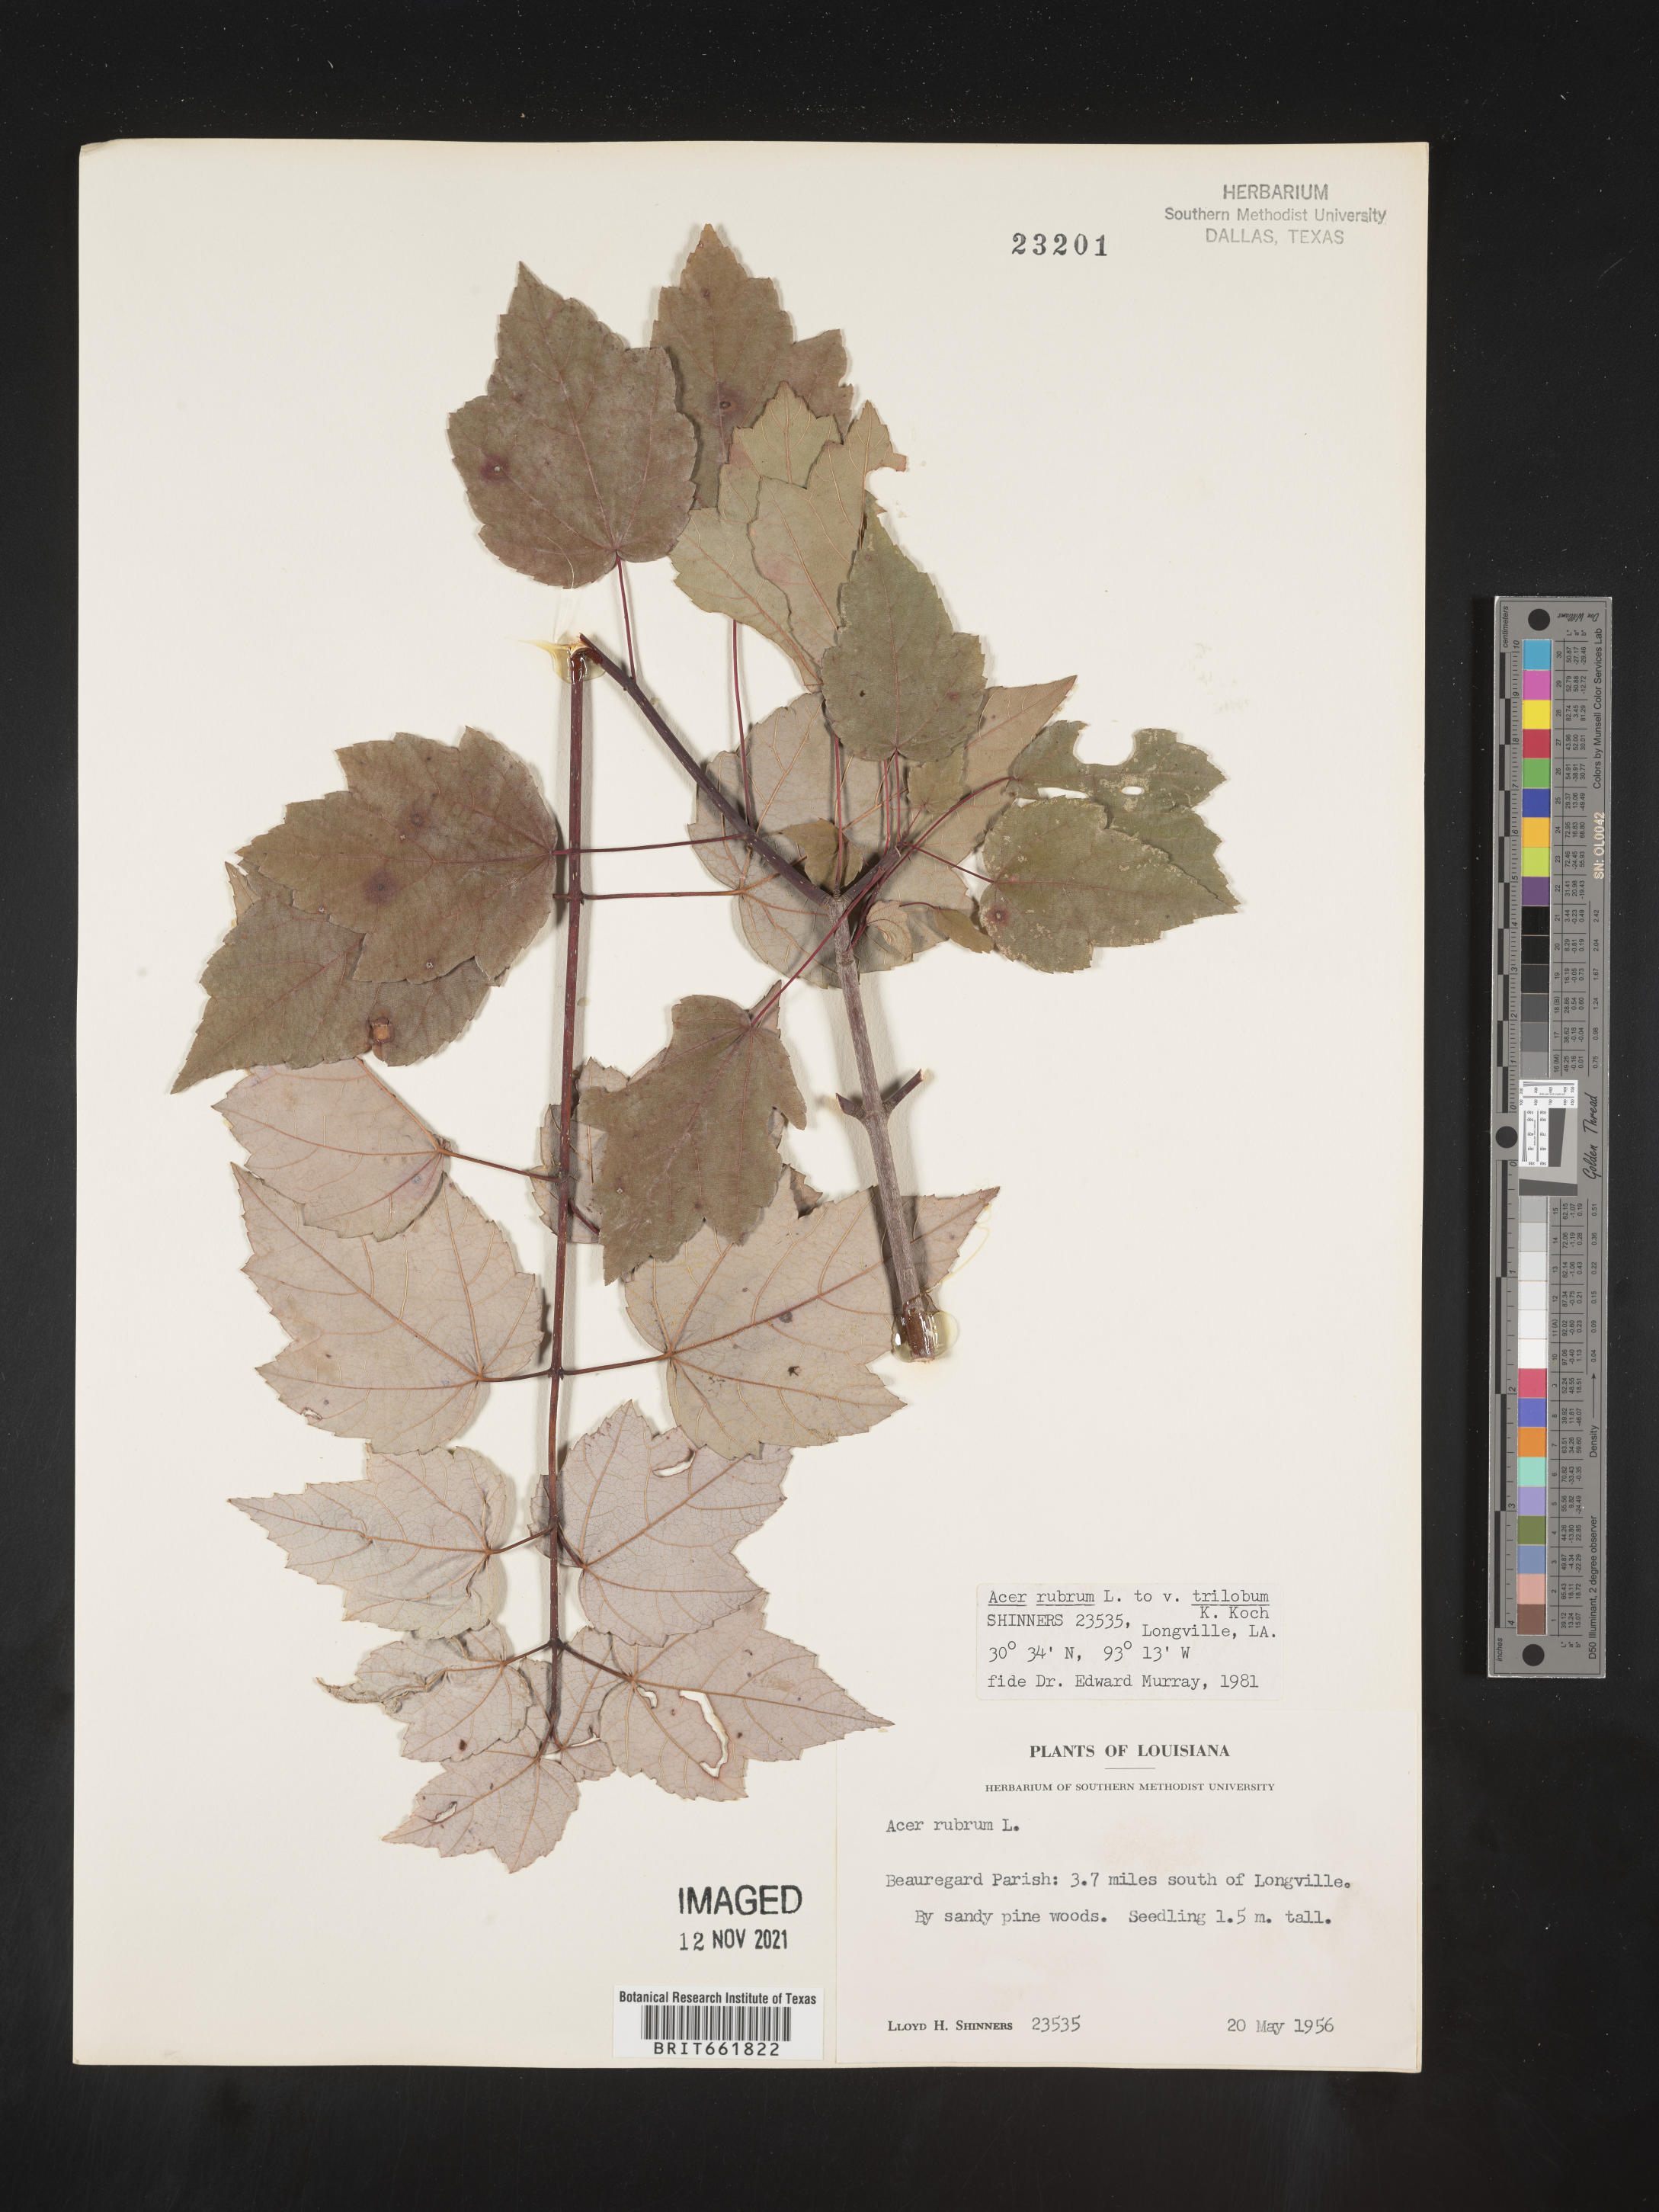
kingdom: Plantae
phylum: Tracheophyta
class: Magnoliopsida
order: Sapindales
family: Sapindaceae
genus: Acer
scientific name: Acer rubrum
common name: Red maple
